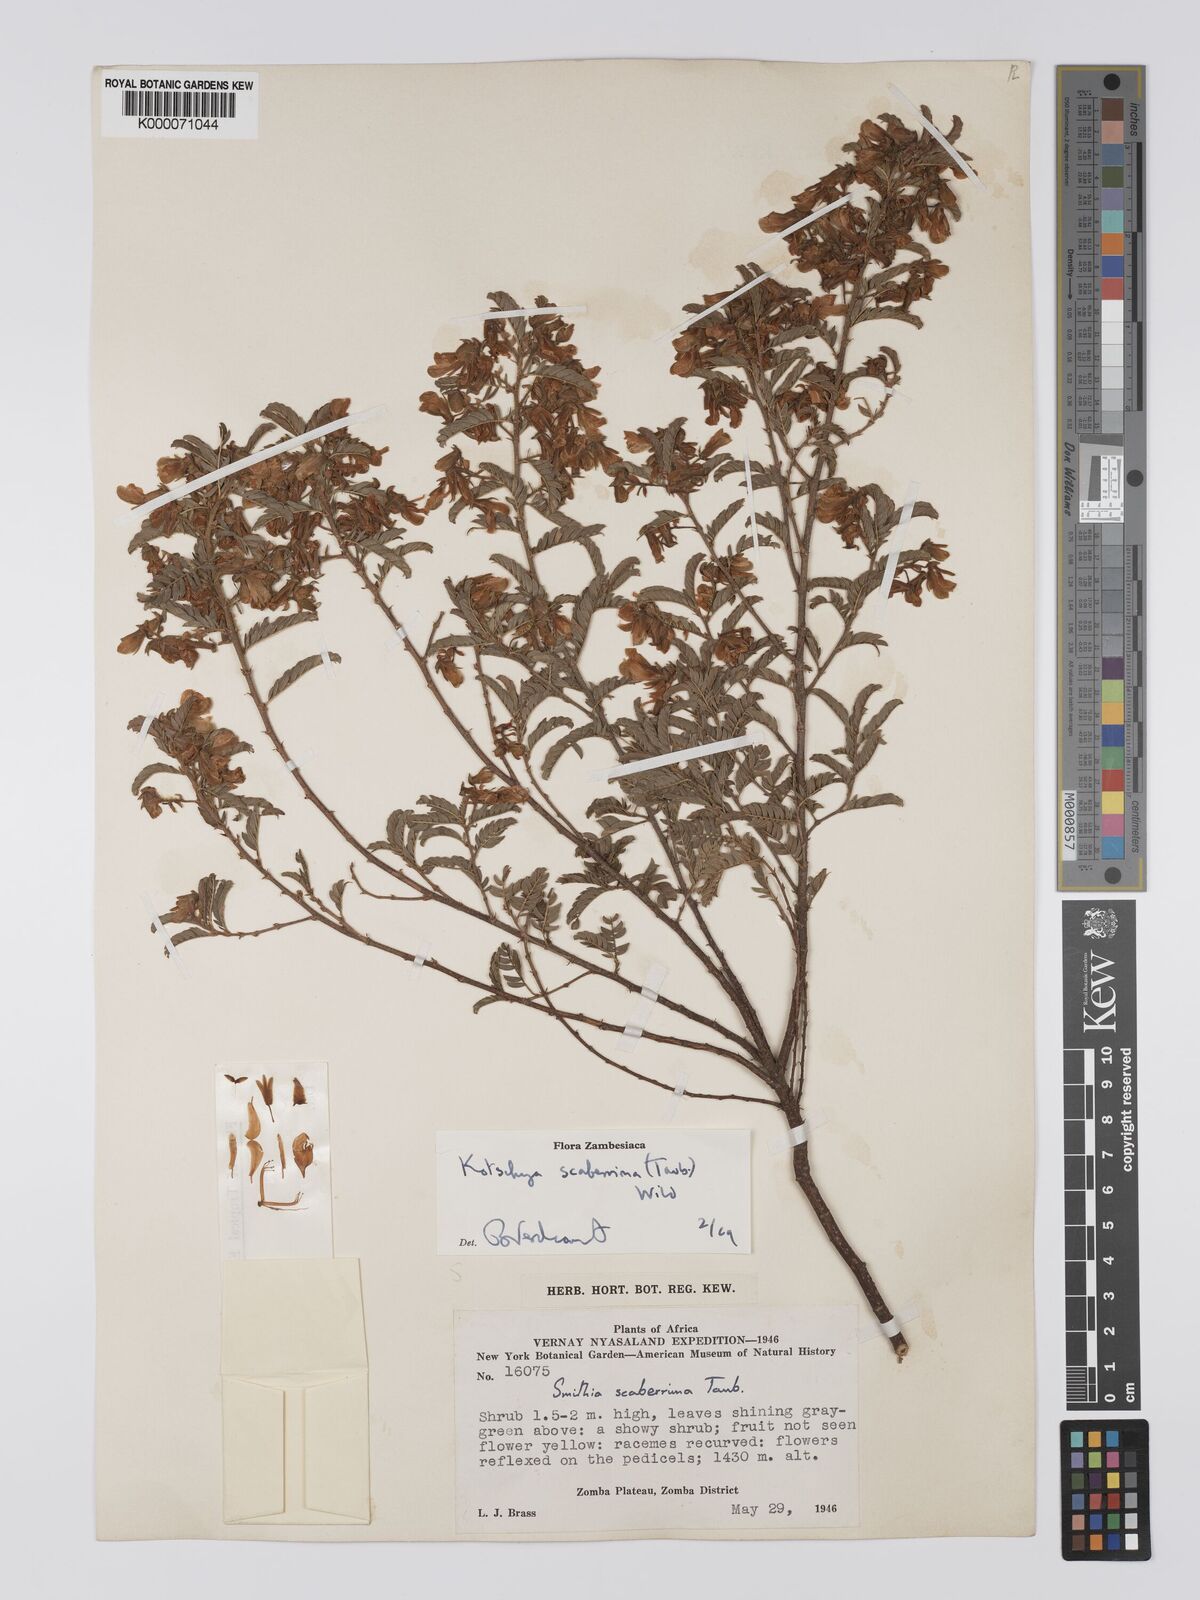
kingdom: Plantae
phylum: Tracheophyta
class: Magnoliopsida
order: Fabales
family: Fabaceae
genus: Kotschya
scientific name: Kotschya scaberrima
